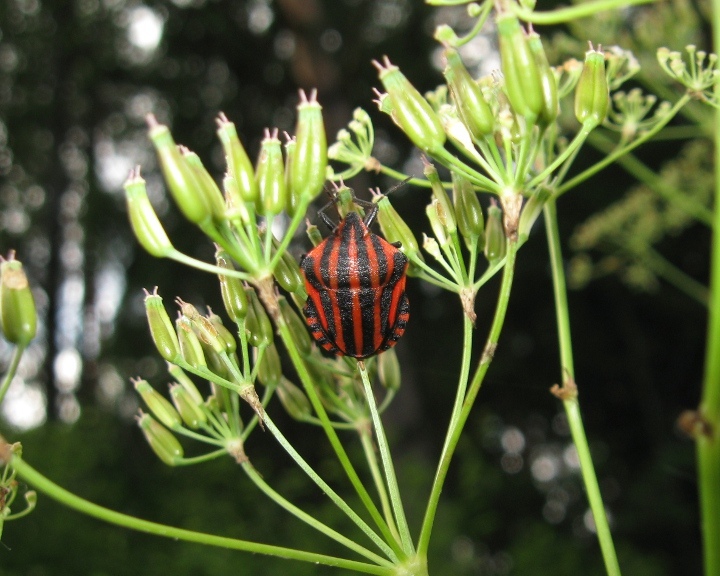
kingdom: Animalia
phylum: Arthropoda
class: Insecta
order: Hemiptera
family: Pentatomidae
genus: Graphosoma
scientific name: Graphosoma italicum
